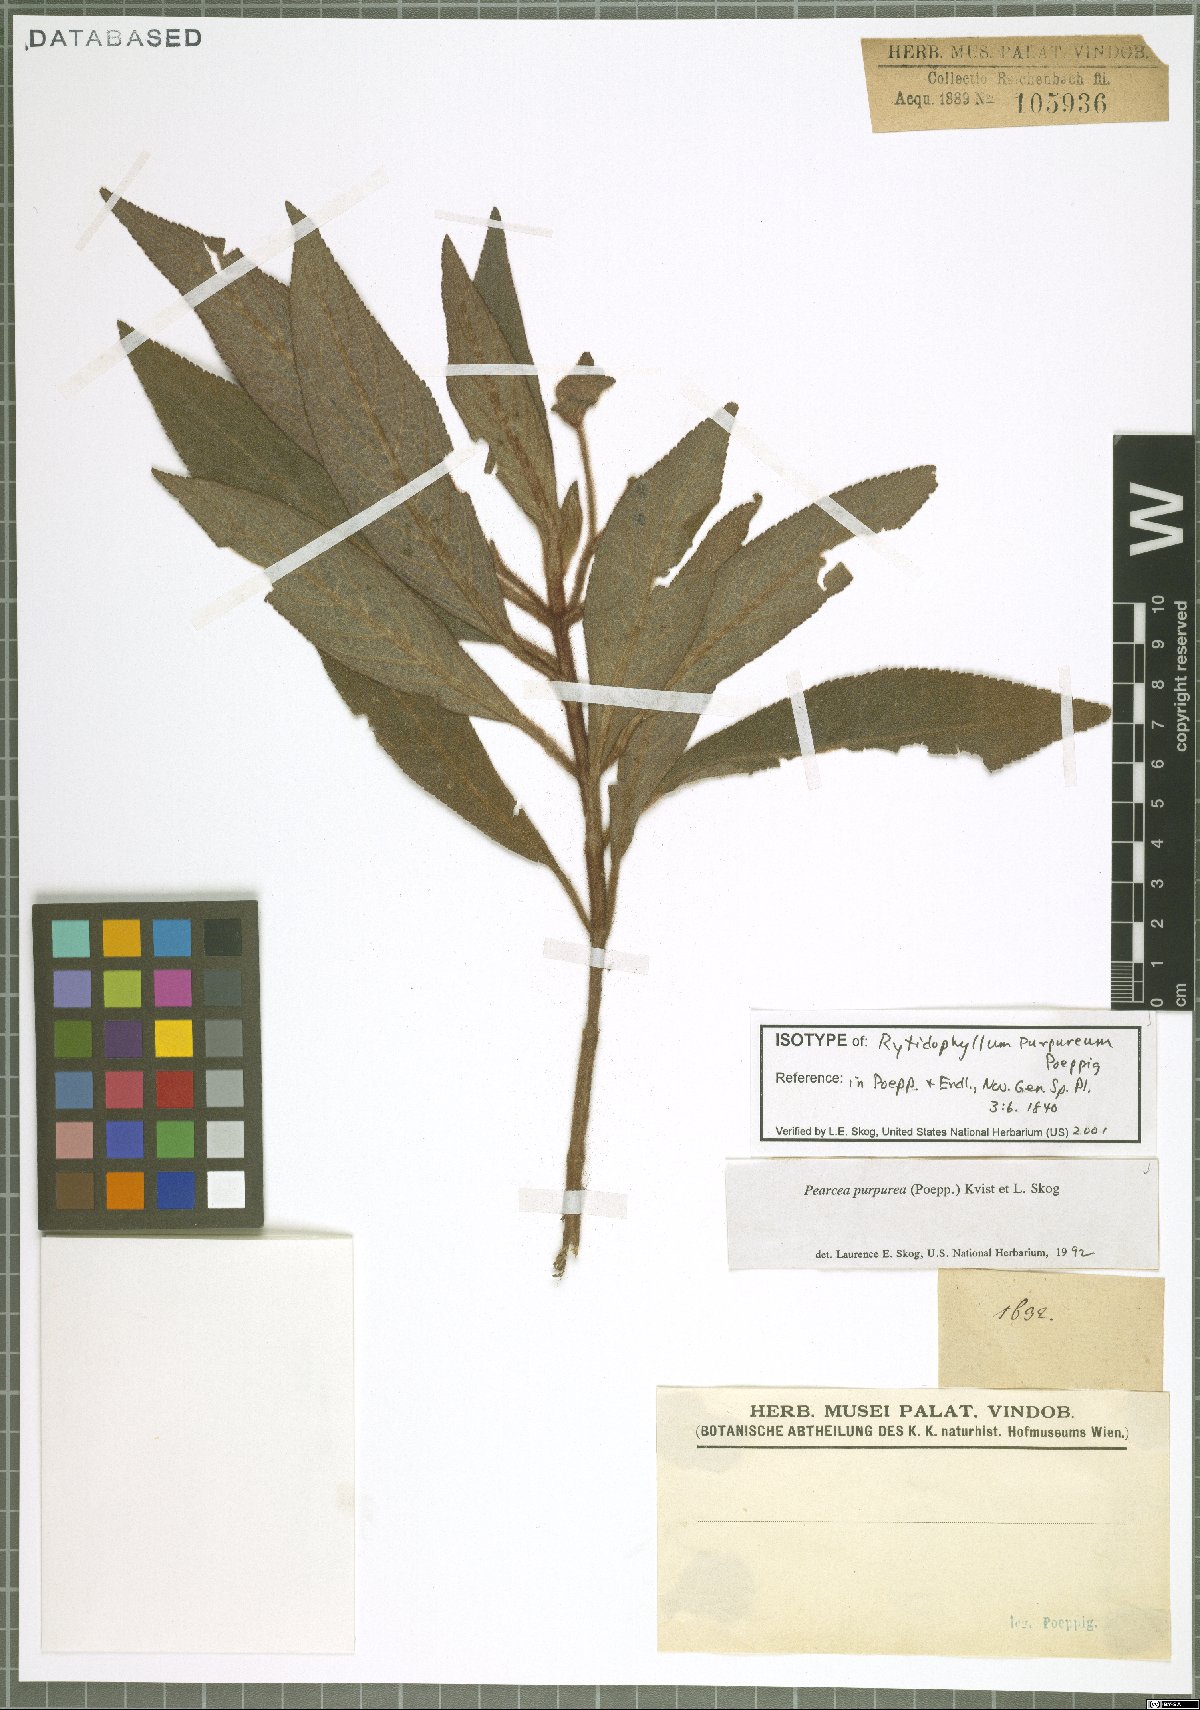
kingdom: Plantae
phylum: Tracheophyta
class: Magnoliopsida
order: Lamiales
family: Gesneriaceae
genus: Pearcea
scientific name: Pearcea purpurea
